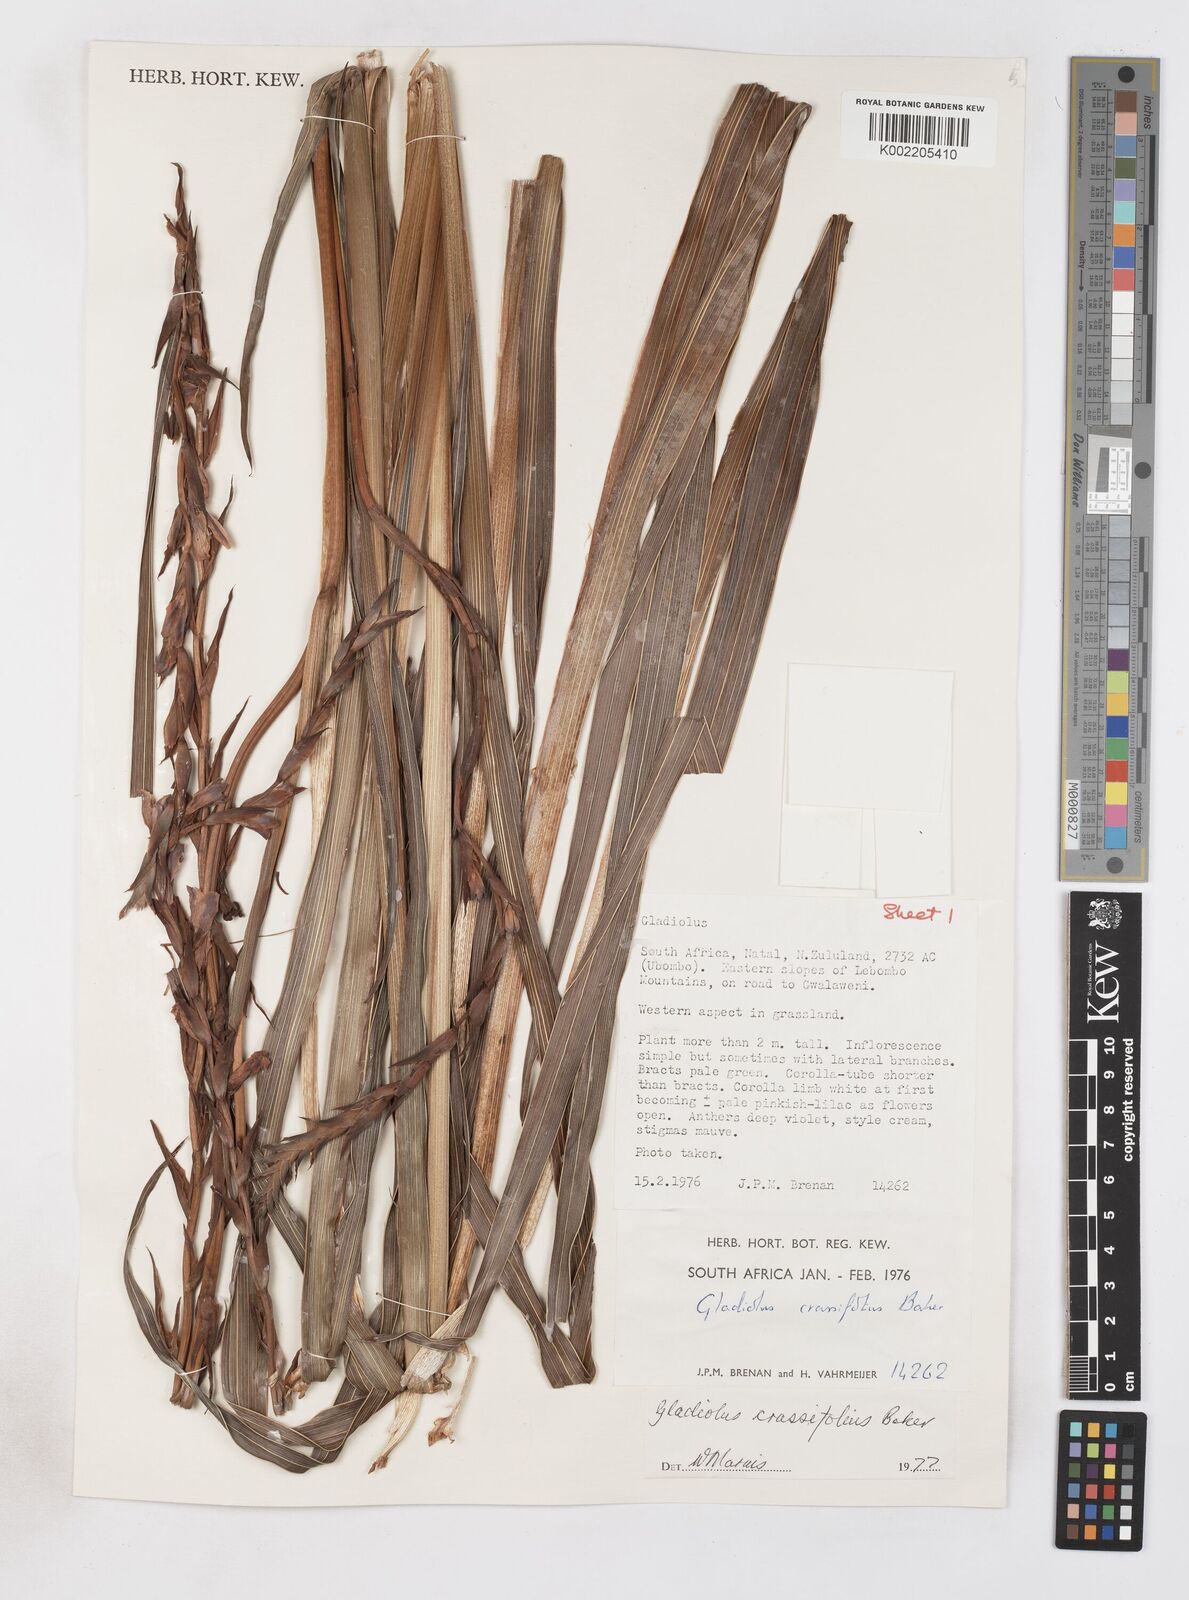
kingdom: Plantae
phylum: Tracheophyta
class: Liliopsida
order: Asparagales
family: Iridaceae
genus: Gladiolus
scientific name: Gladiolus densiflorus
